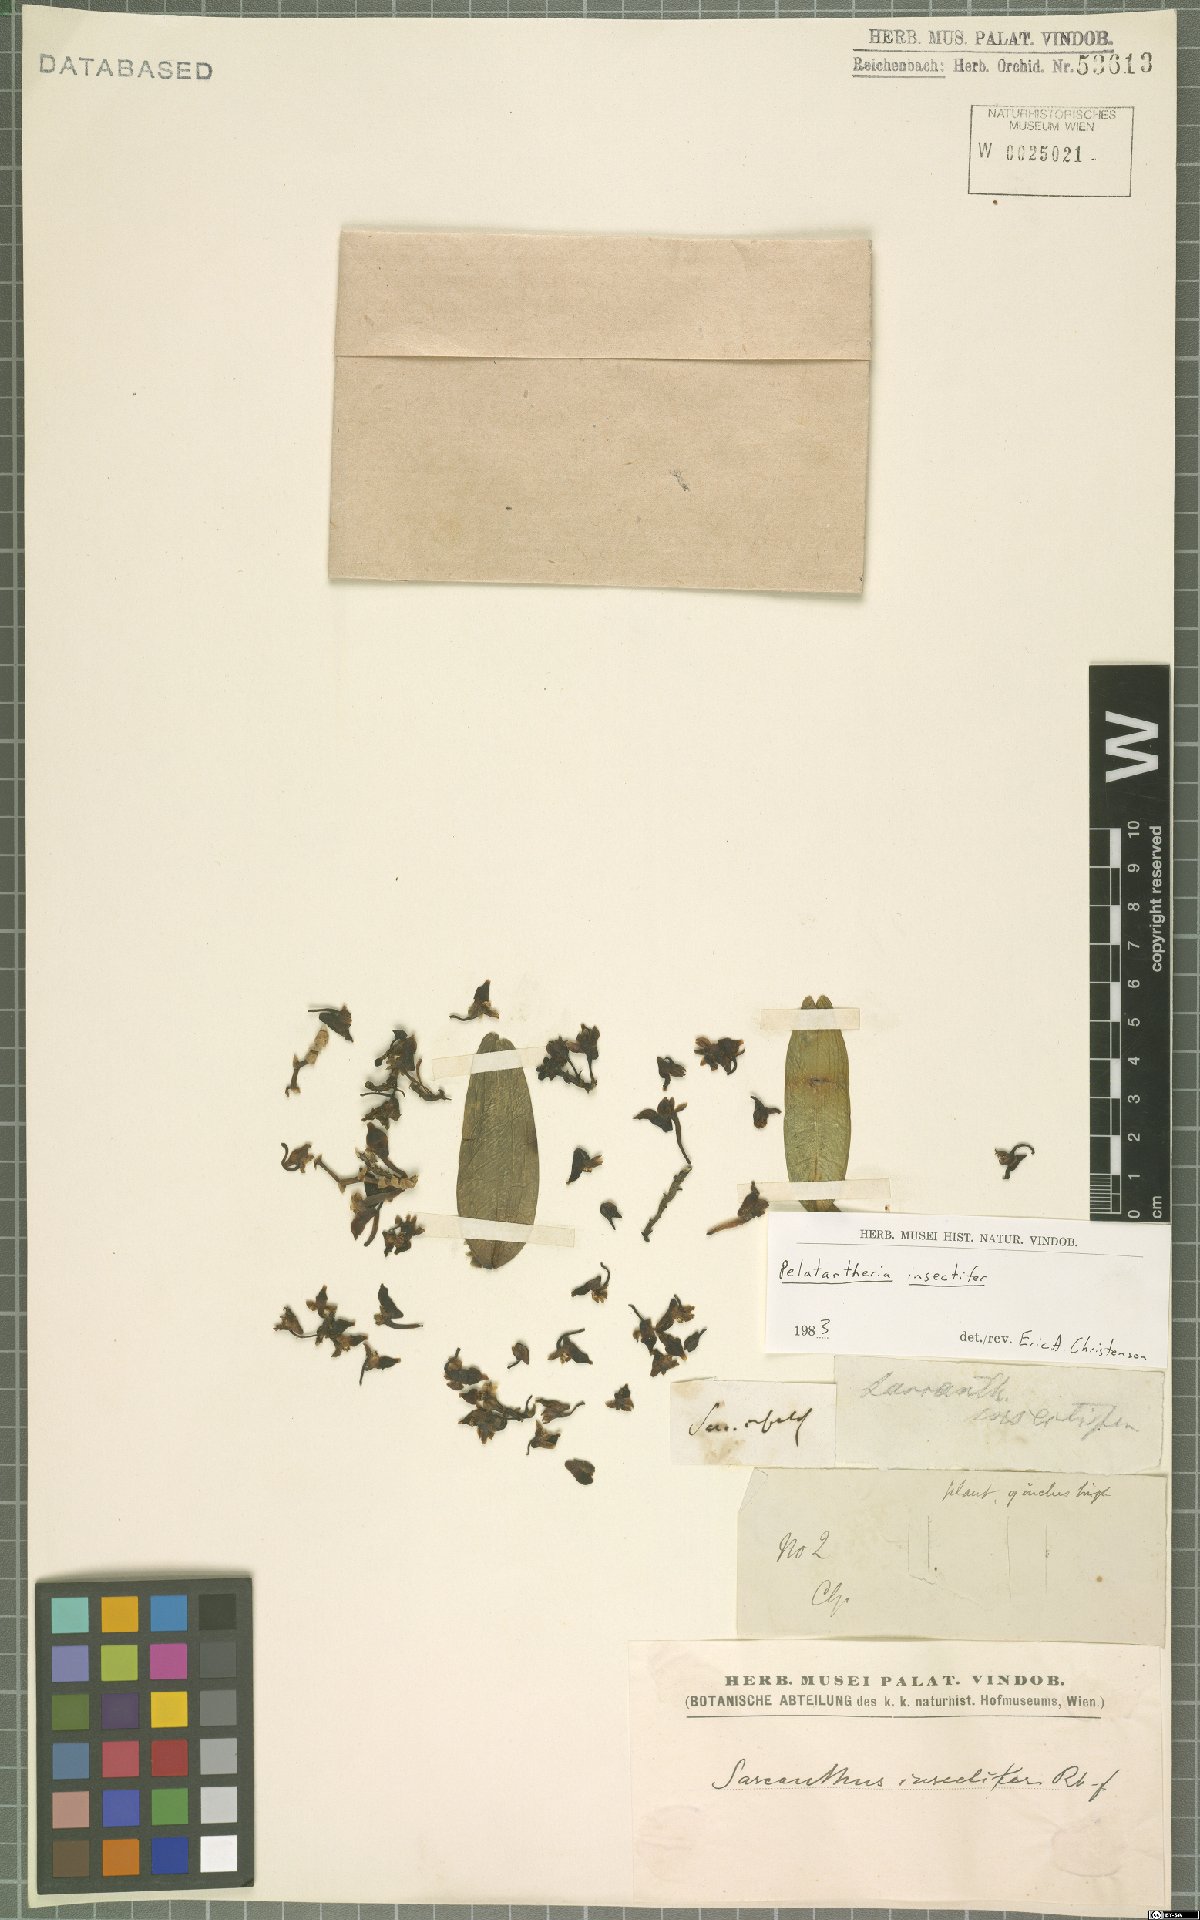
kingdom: Plantae
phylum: Tracheophyta
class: Liliopsida
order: Asparagales
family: Orchidaceae
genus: Pelatantheria
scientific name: Pelatantheria insectifera
